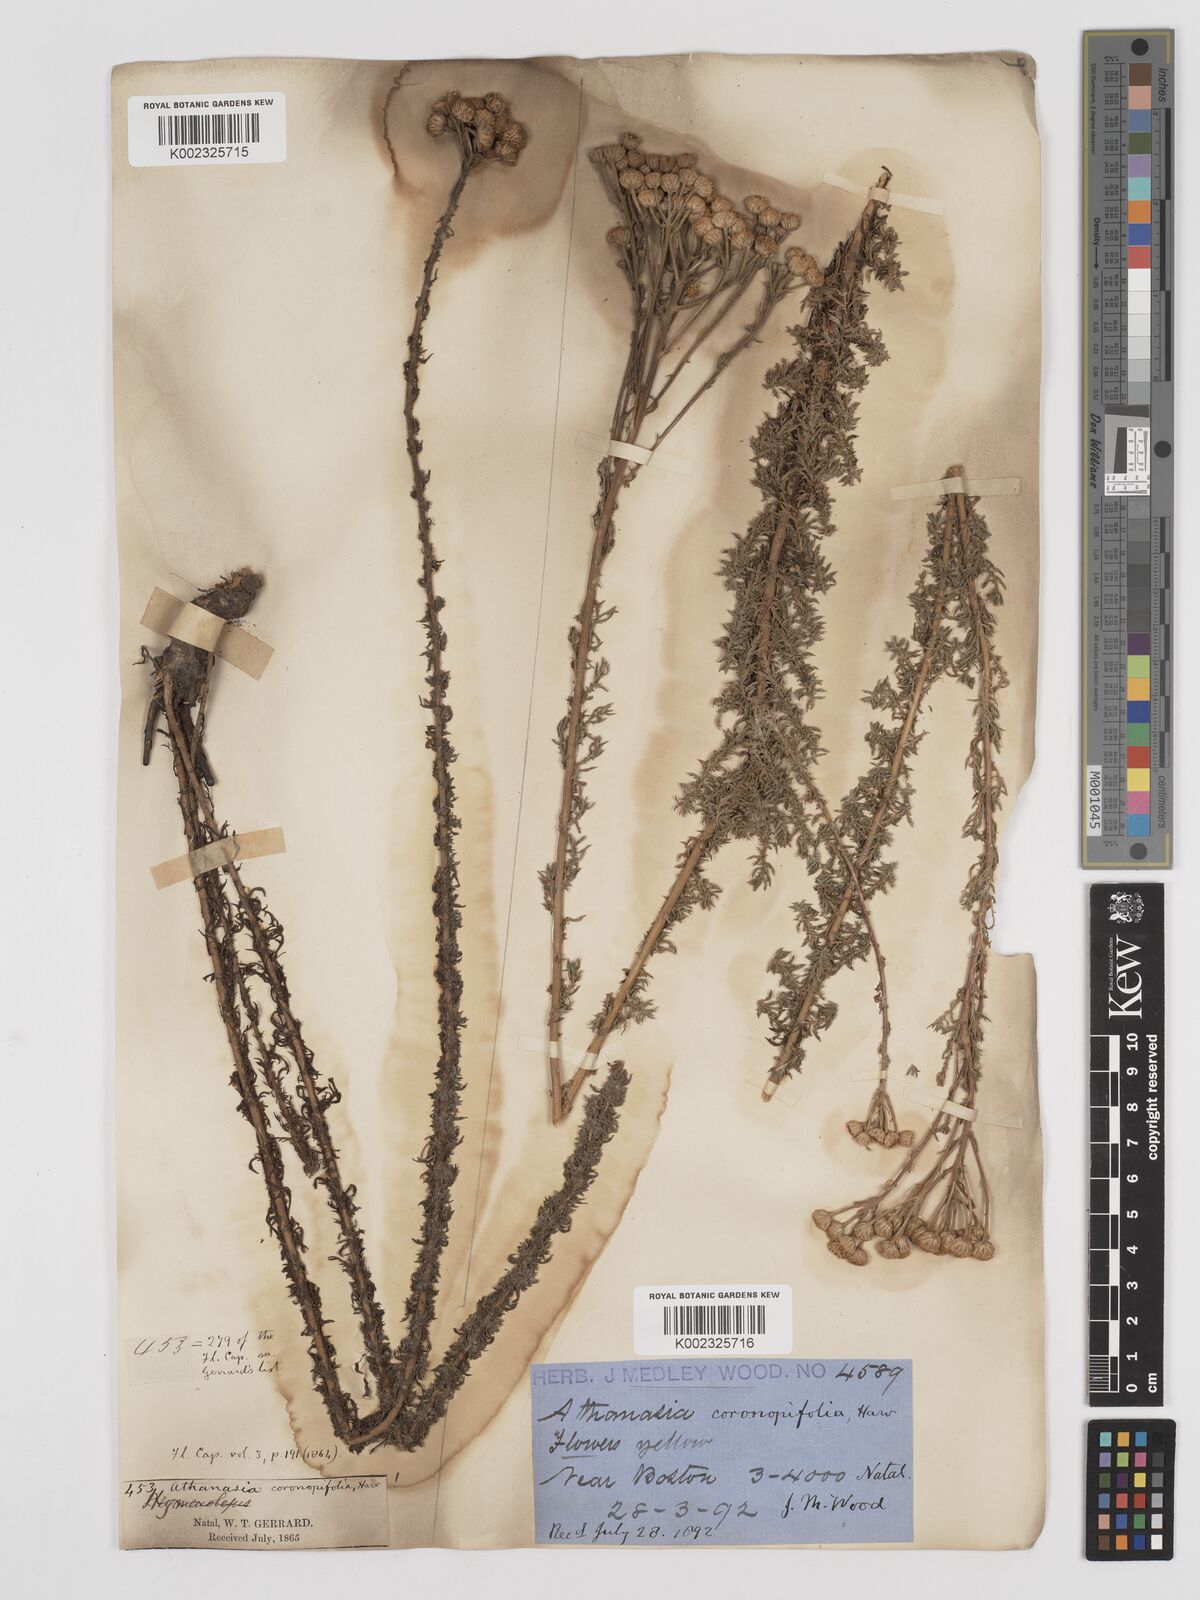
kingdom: Plantae
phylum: Tracheophyta
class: Magnoliopsida
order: Asterales
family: Asteraceae
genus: Inulanthera
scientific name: Inulanthera coronopifolia
